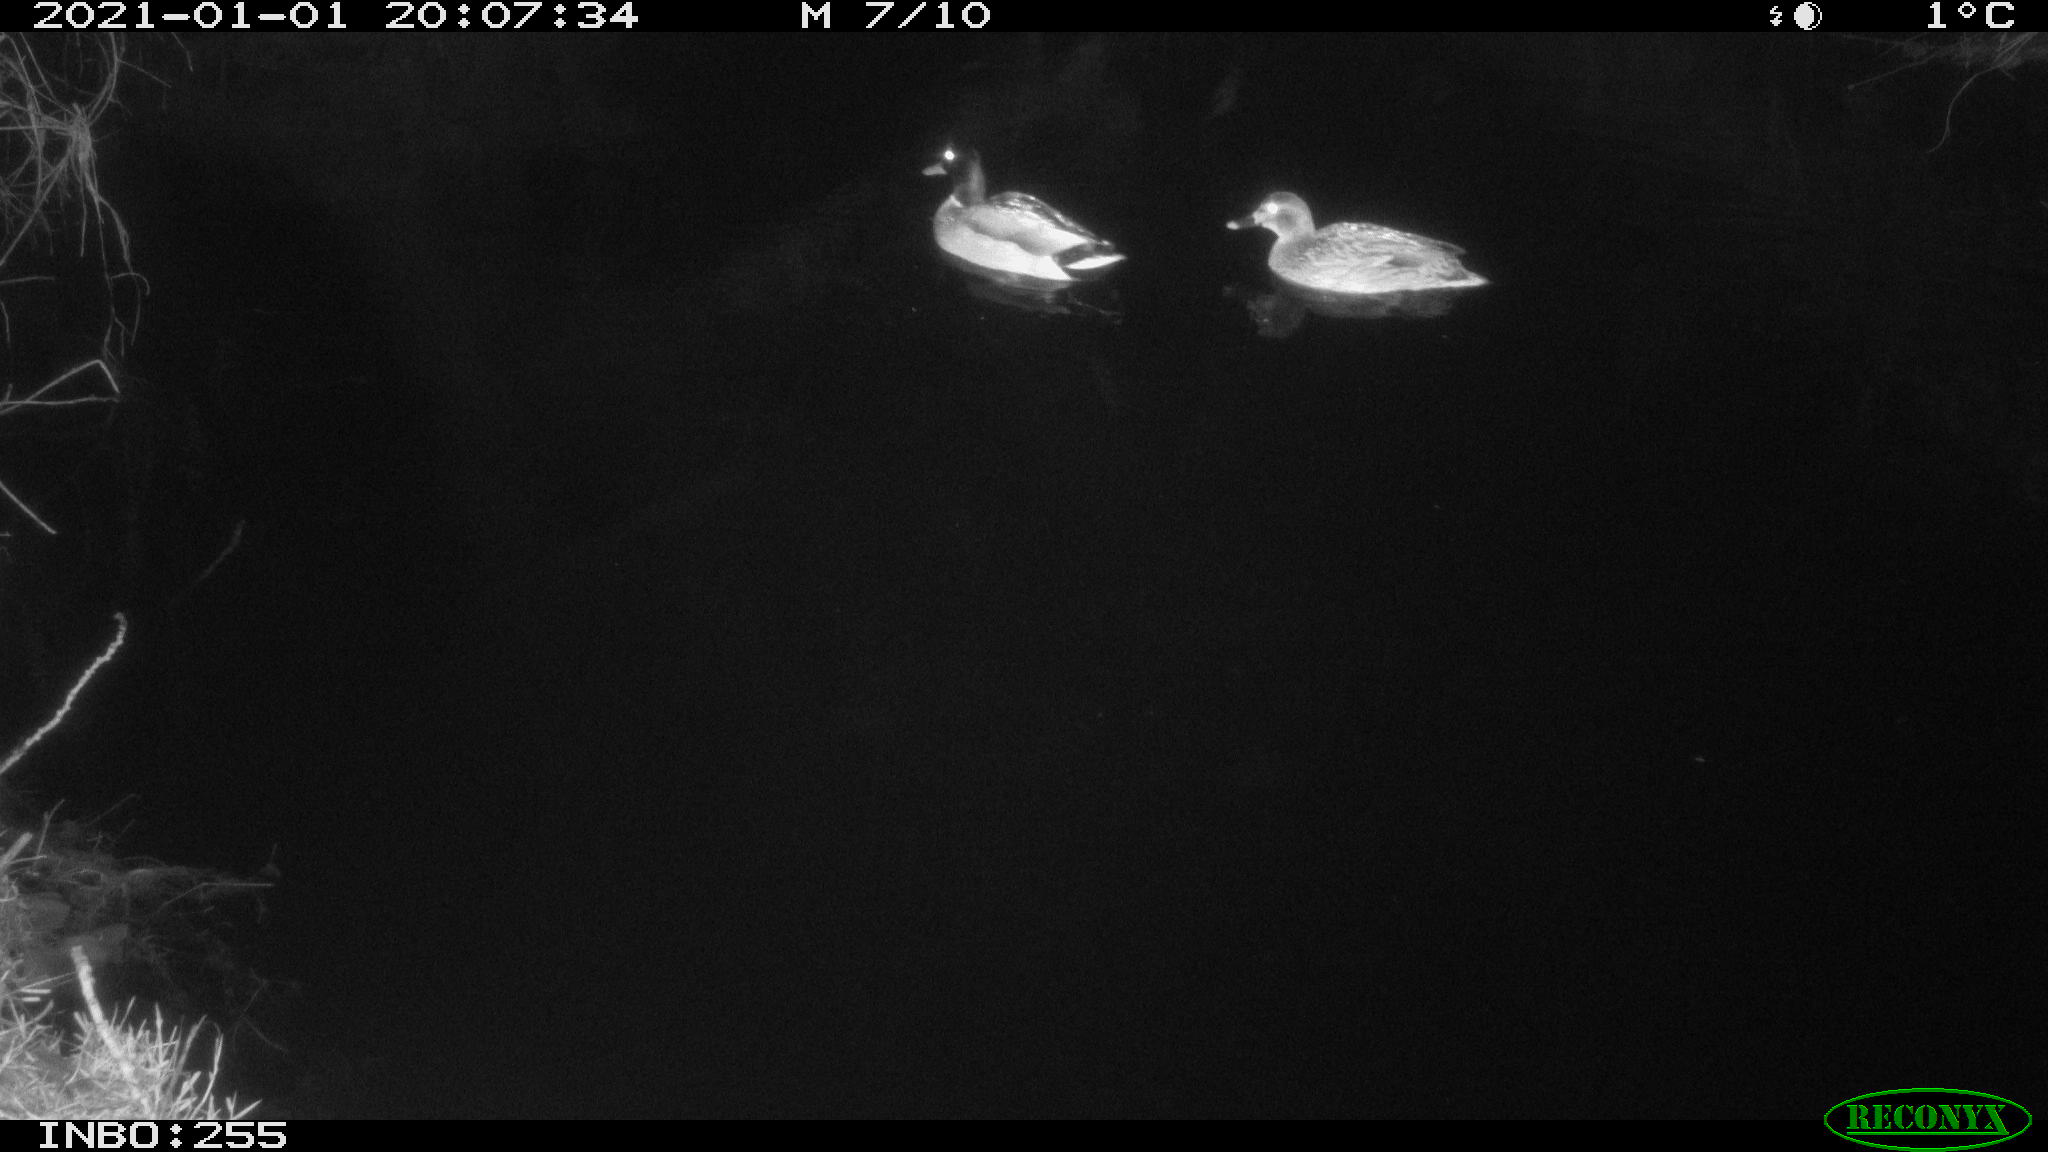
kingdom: Animalia
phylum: Chordata
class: Aves
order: Anseriformes
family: Anatidae
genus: Anas
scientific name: Anas platyrhynchos
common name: Mallard
